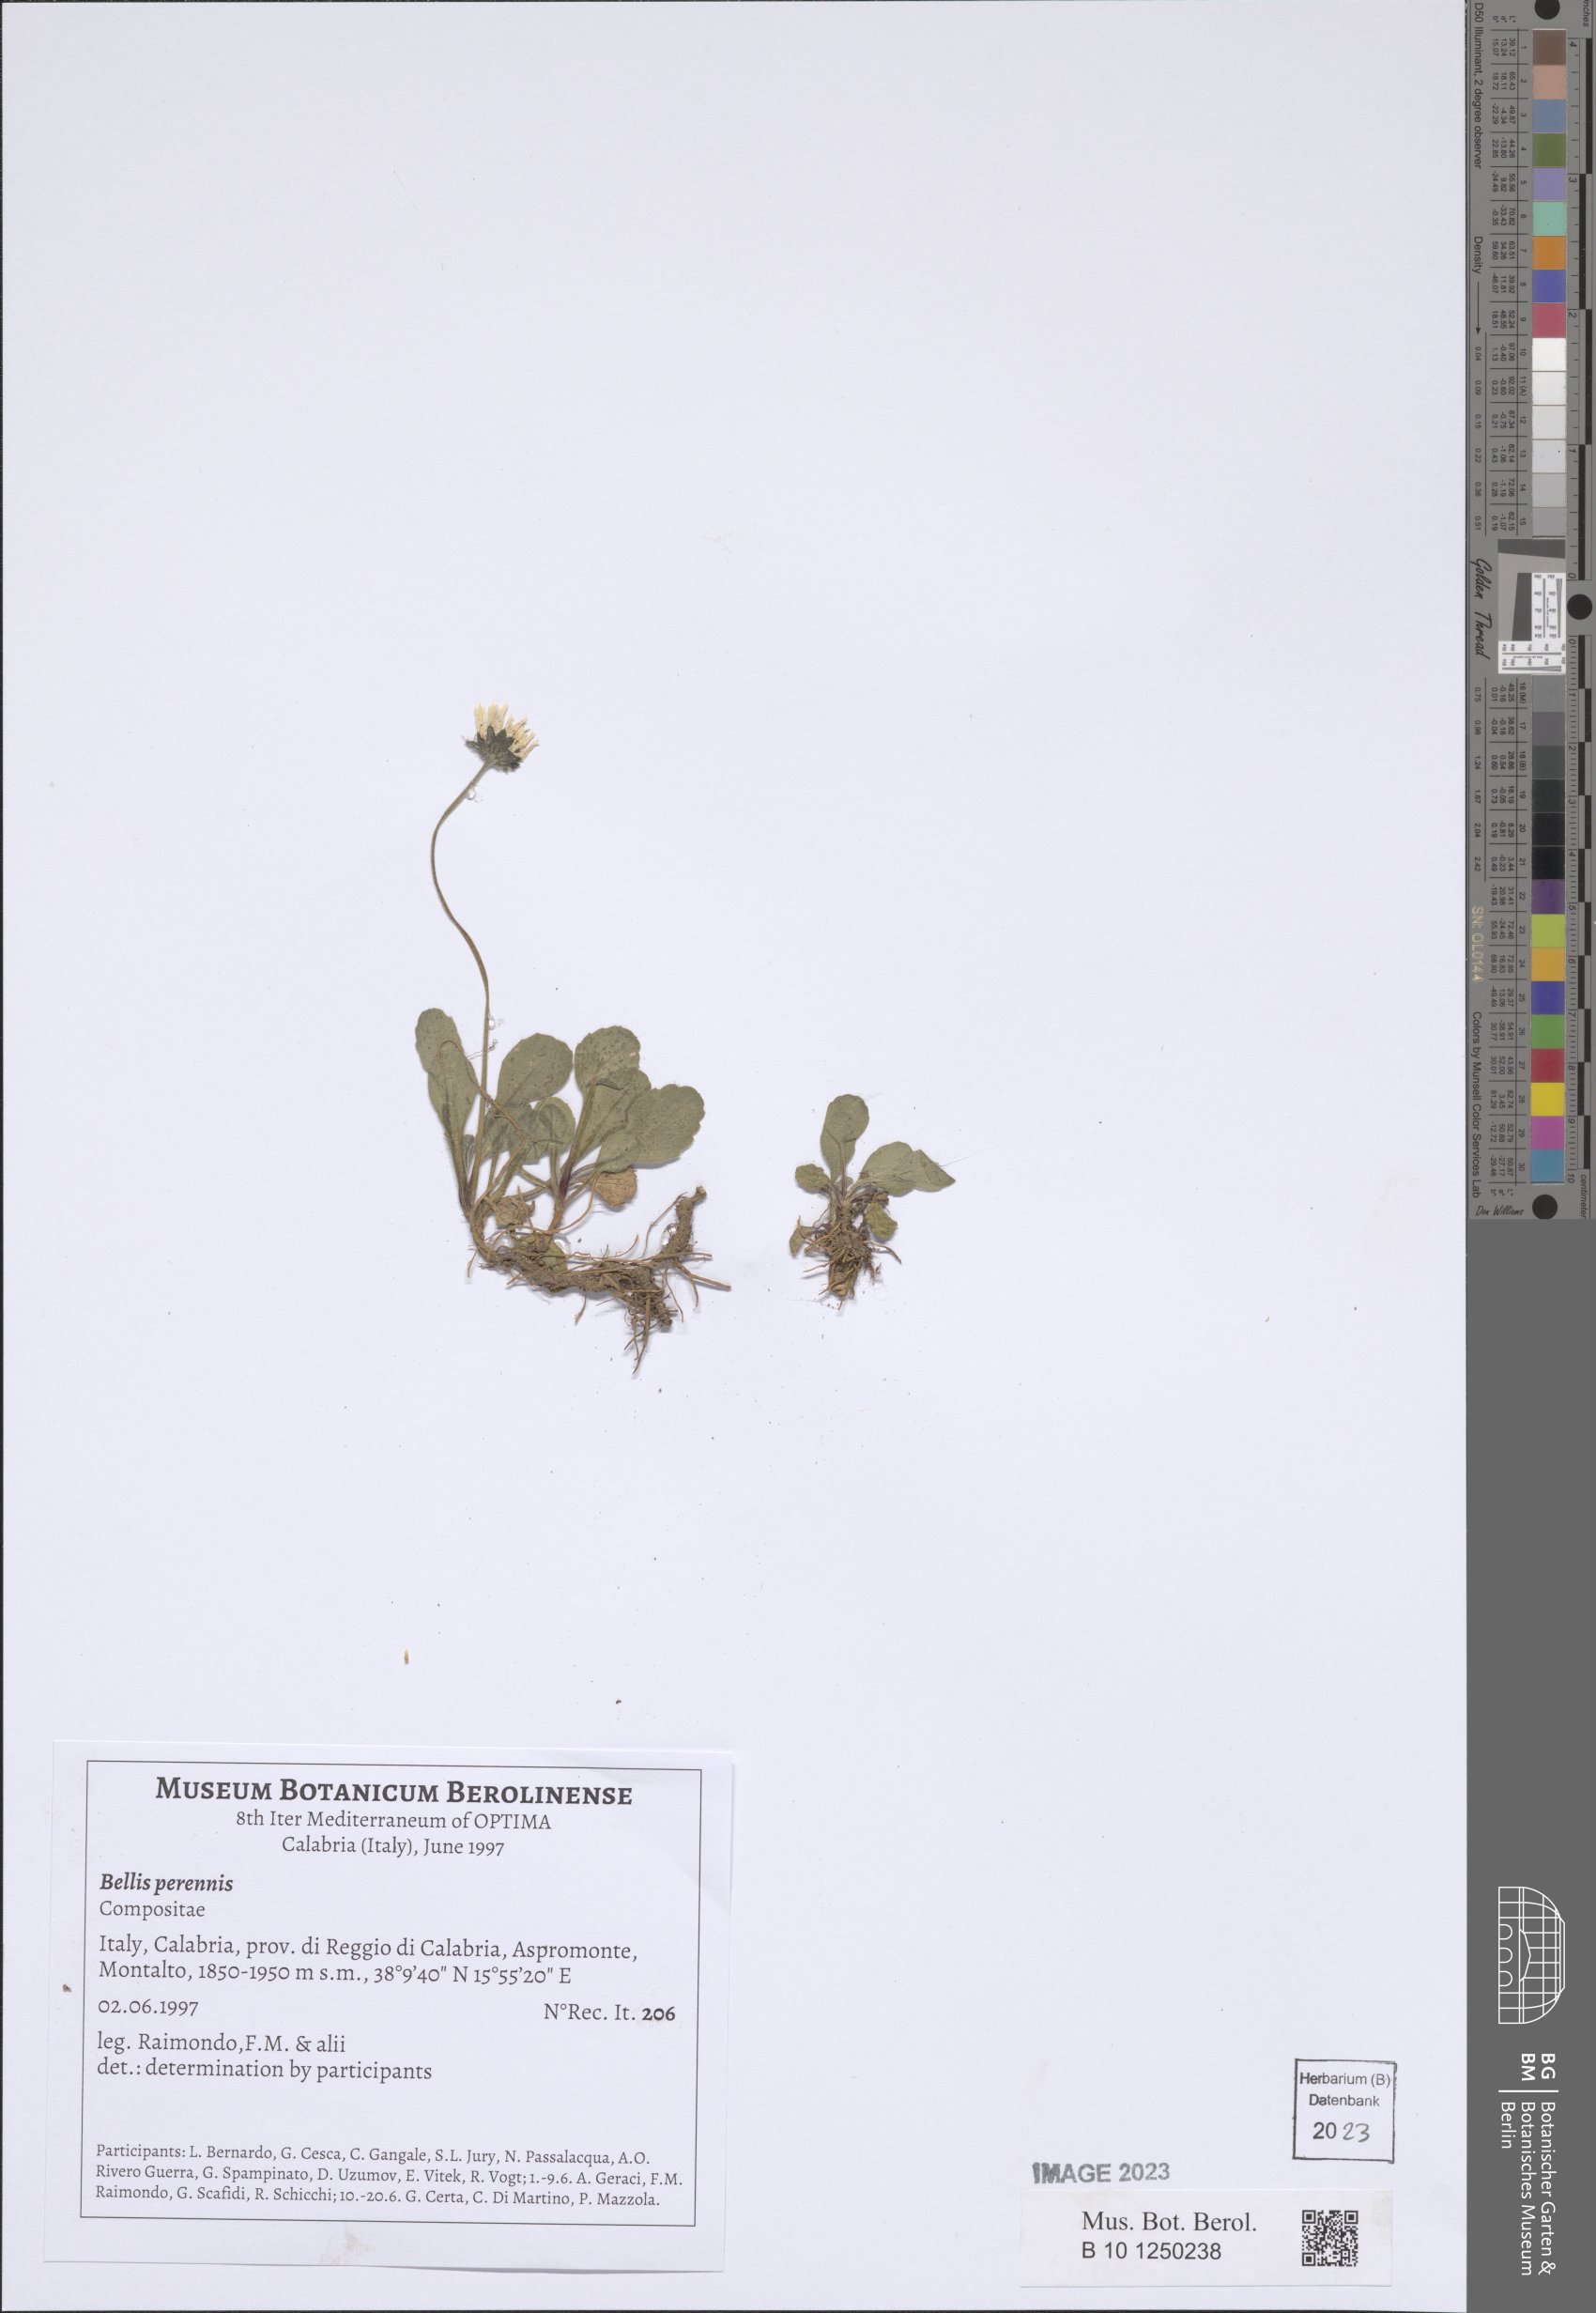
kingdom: Plantae
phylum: Tracheophyta
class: Magnoliopsida
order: Asterales
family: Asteraceae
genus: Bellis
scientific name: Bellis perennis
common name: Lawndaisy
